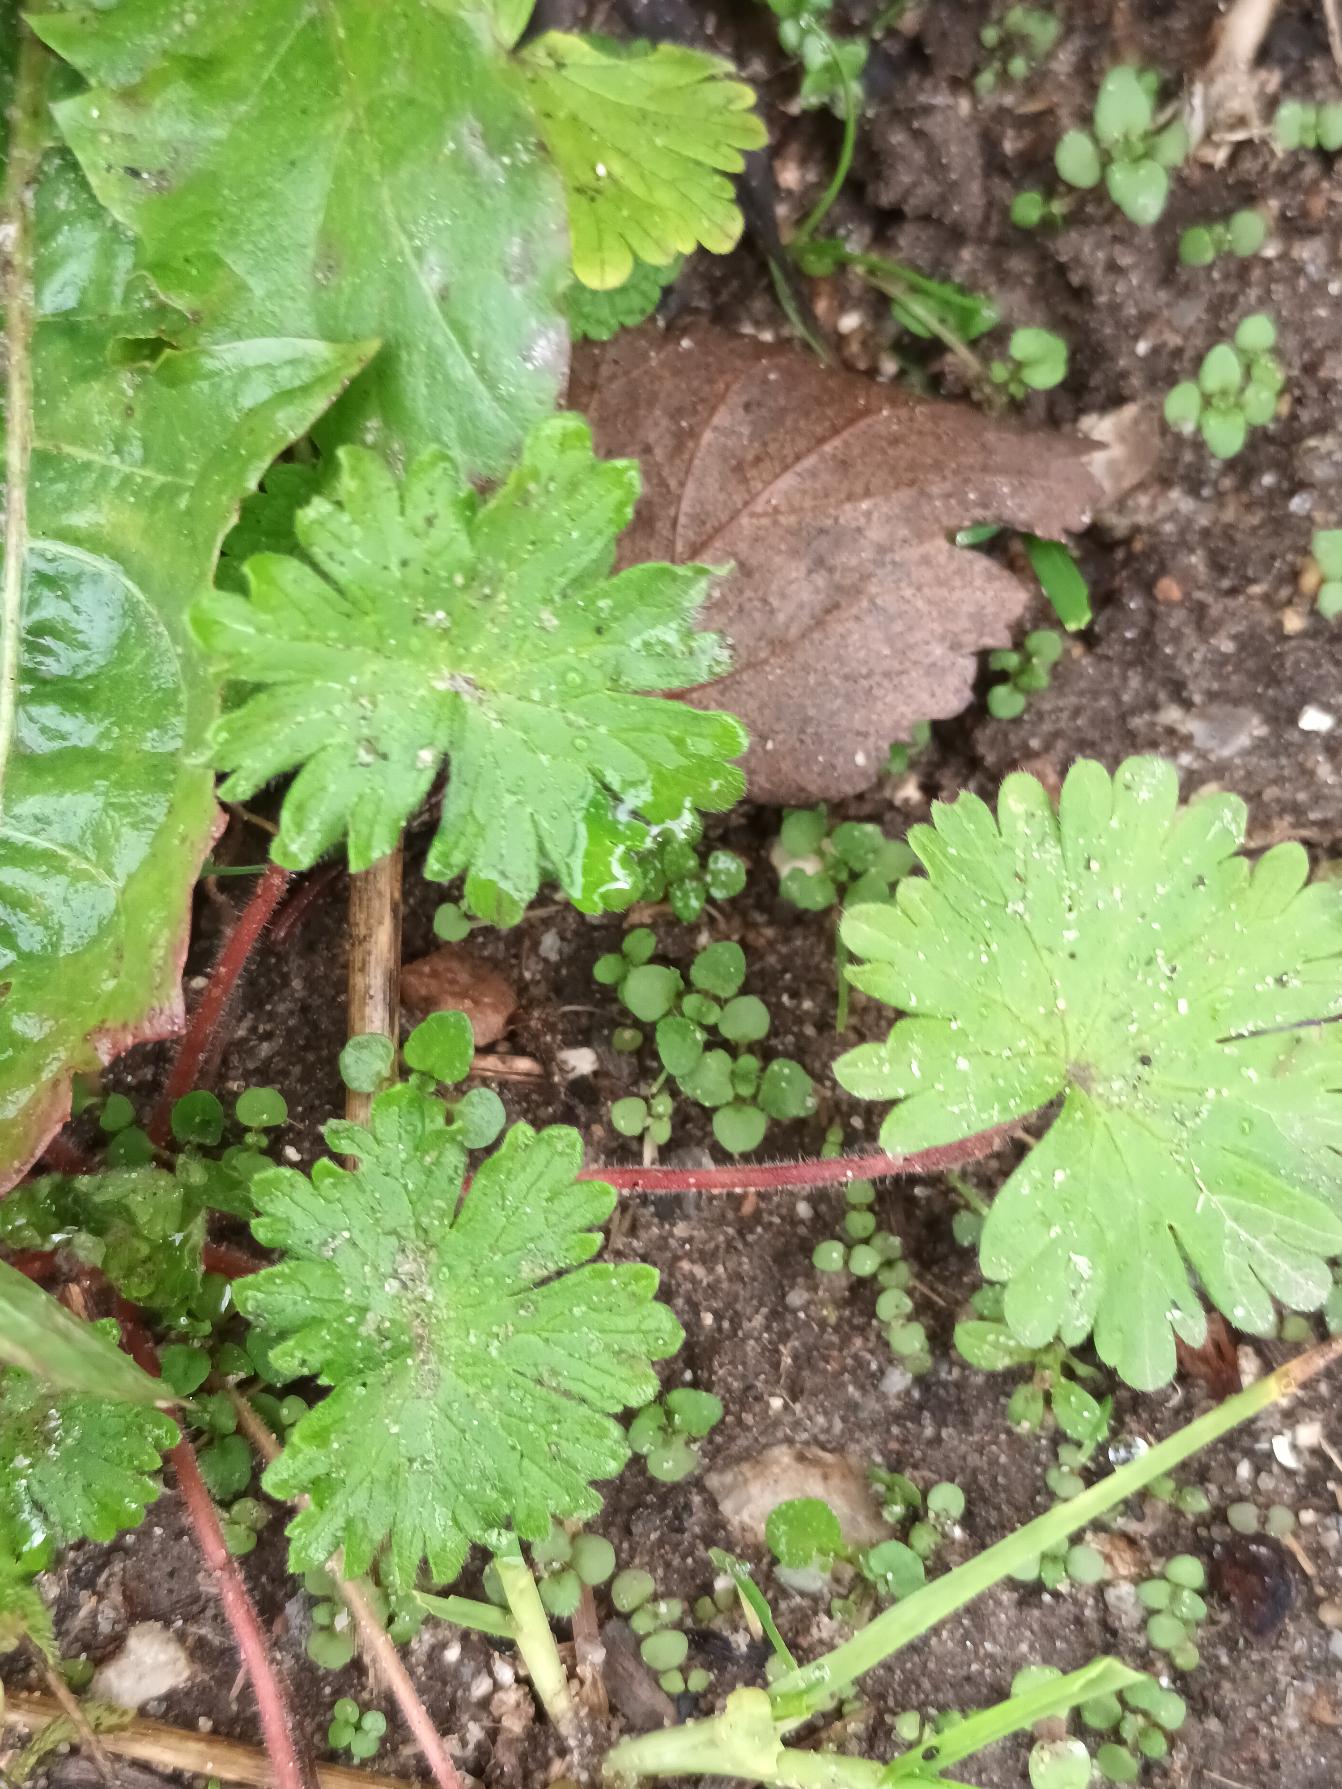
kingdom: Plantae
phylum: Tracheophyta
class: Magnoliopsida
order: Geraniales
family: Geraniaceae
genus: Geranium
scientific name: Geranium molle
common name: Blød storkenæb
